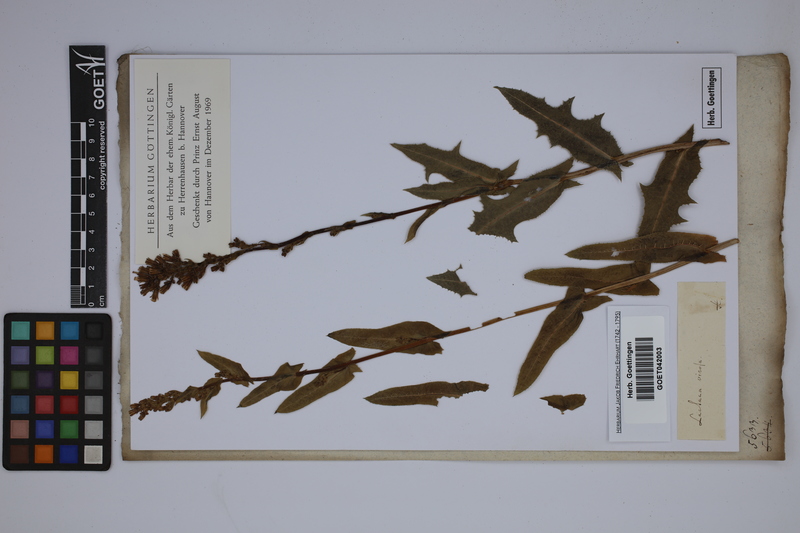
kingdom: Plantae
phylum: Tracheophyta
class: Magnoliopsida
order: Asterales
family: Asteraceae
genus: Lactuca
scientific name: Lactuca virosa
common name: Great lettuce
